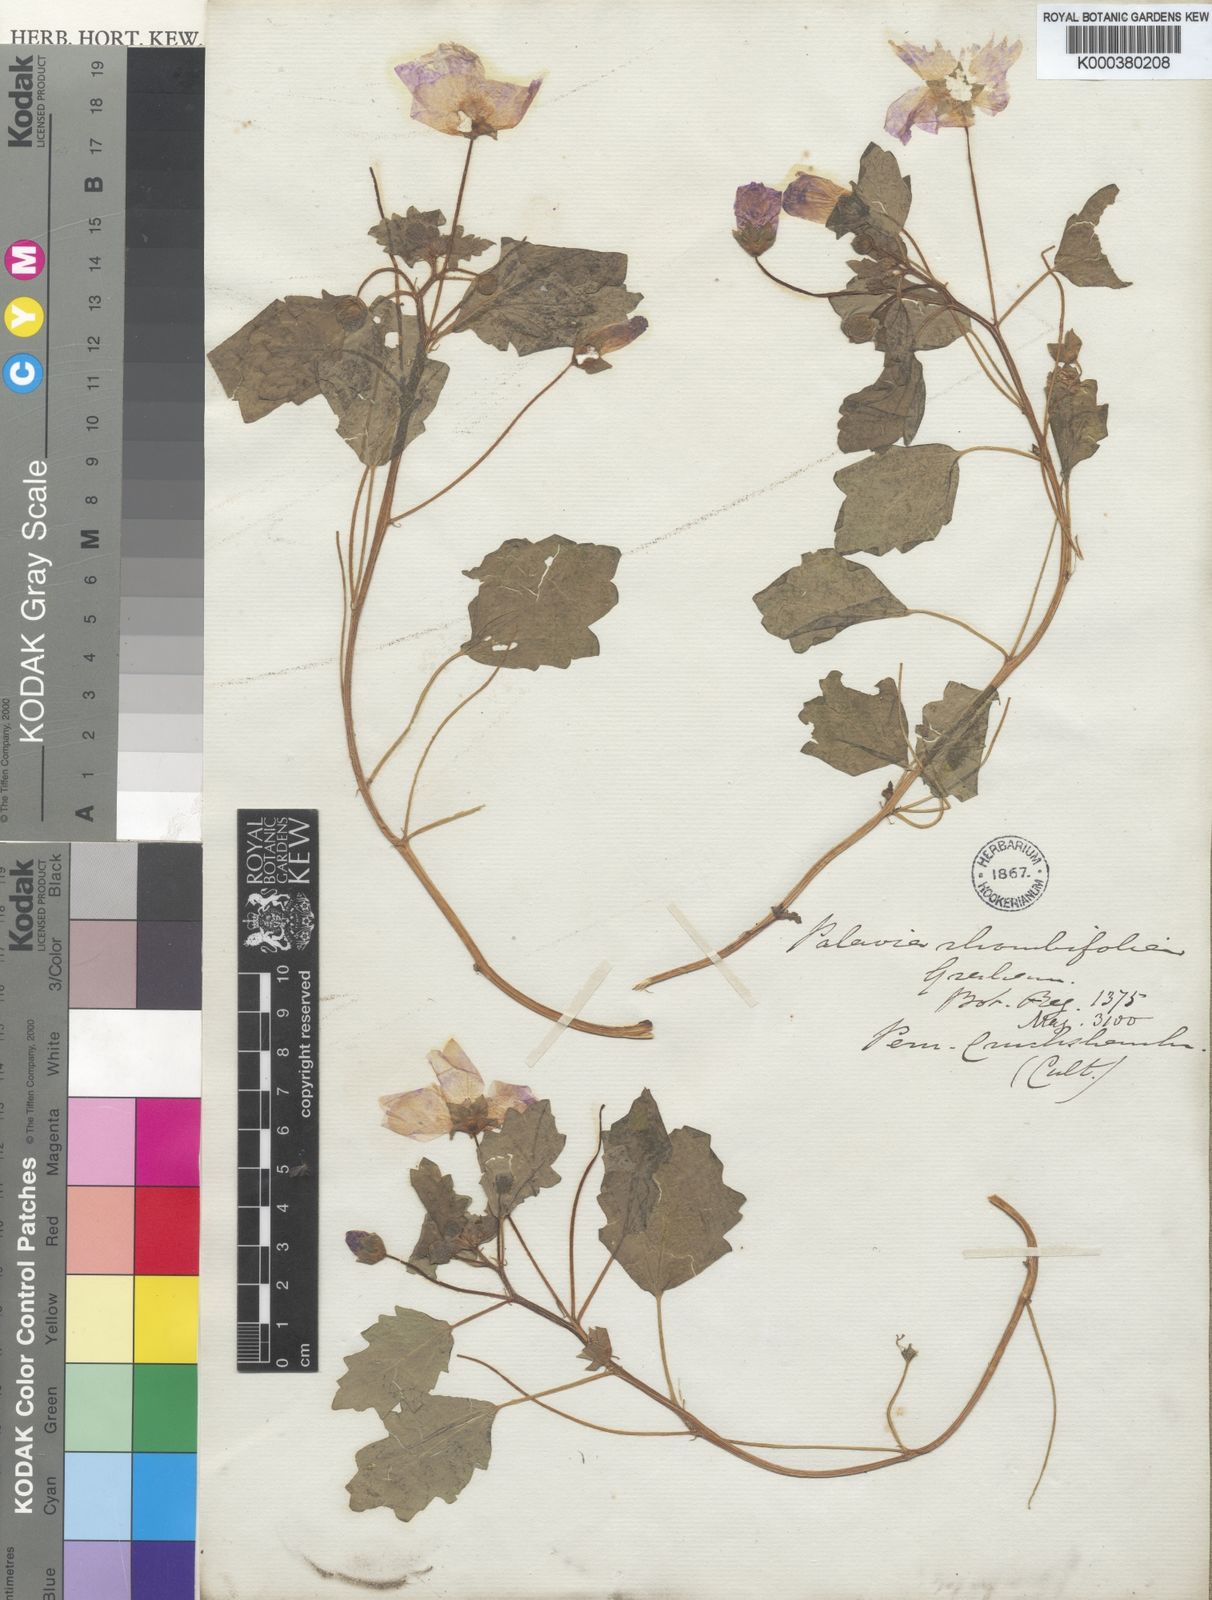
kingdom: Plantae
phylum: Tracheophyta
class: Magnoliopsida
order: Malvales
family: Malvaceae
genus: Palaua
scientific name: Palaua malvifolia
